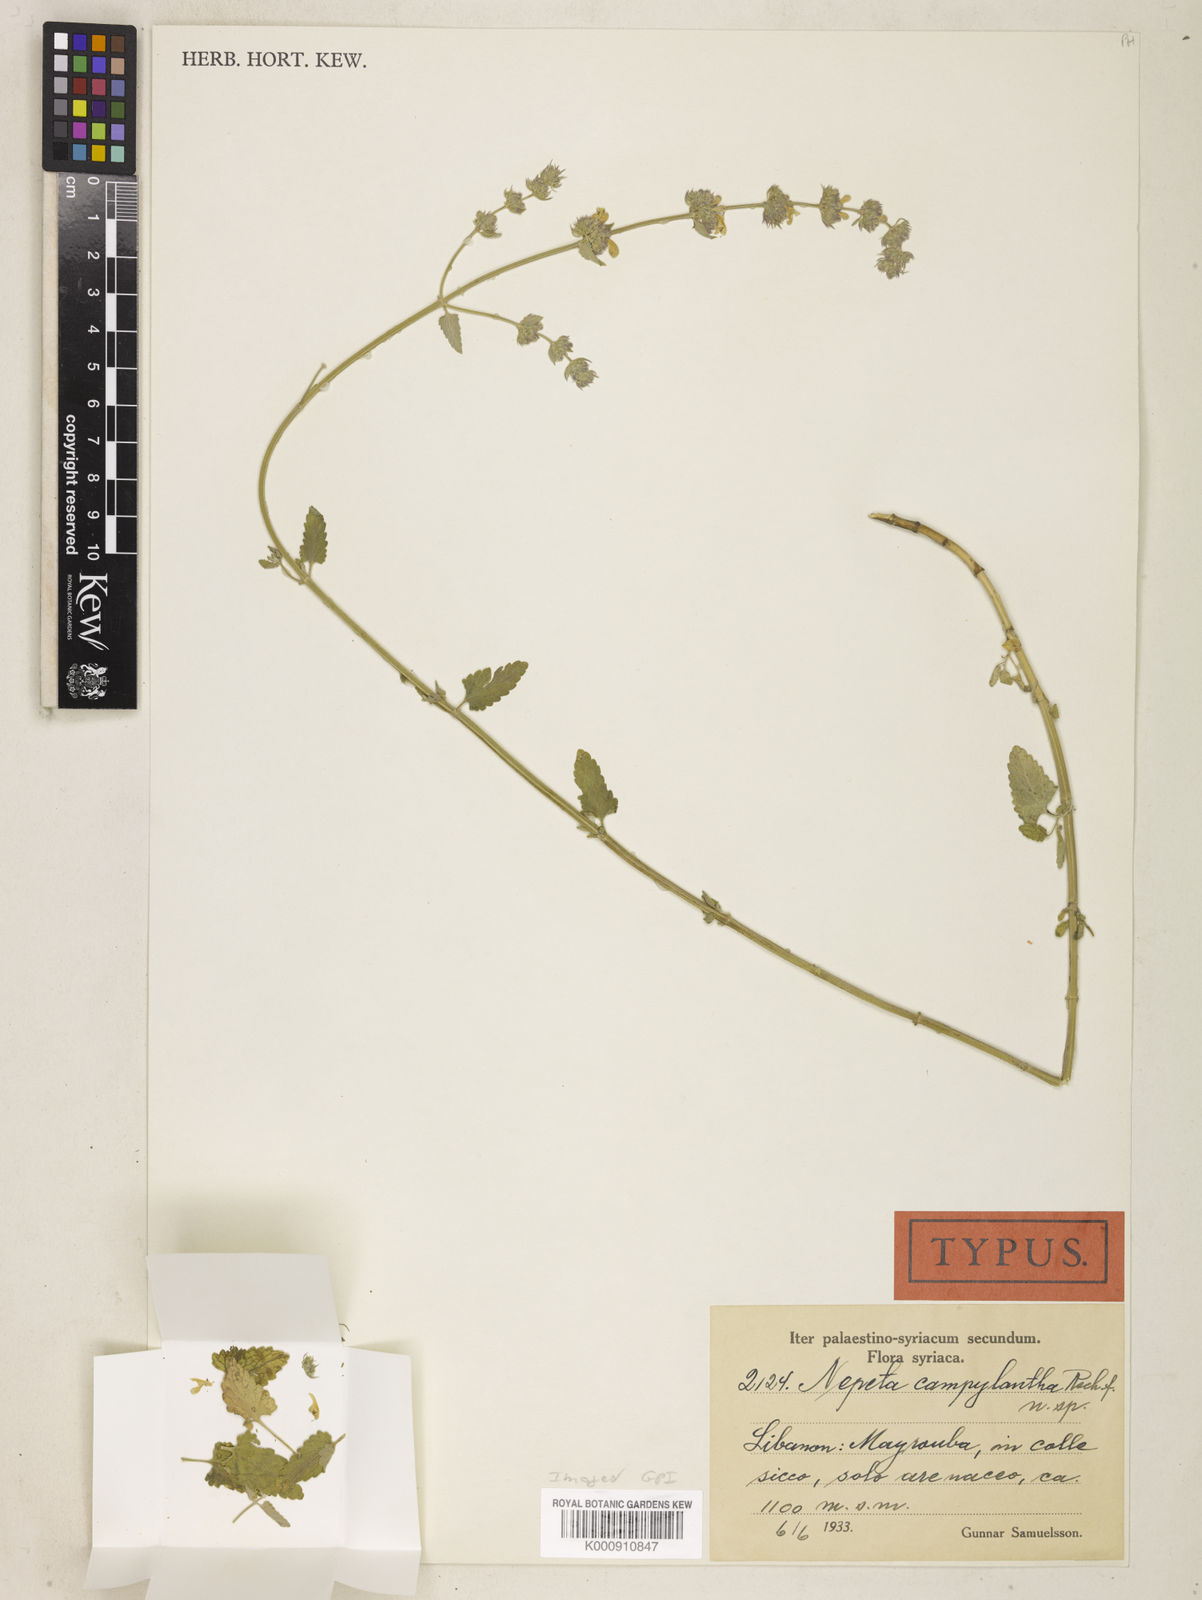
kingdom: Plantae
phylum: Tracheophyta
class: Magnoliopsida
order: Lamiales
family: Lamiaceae
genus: Nepeta
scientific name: Nepeta campylantha
